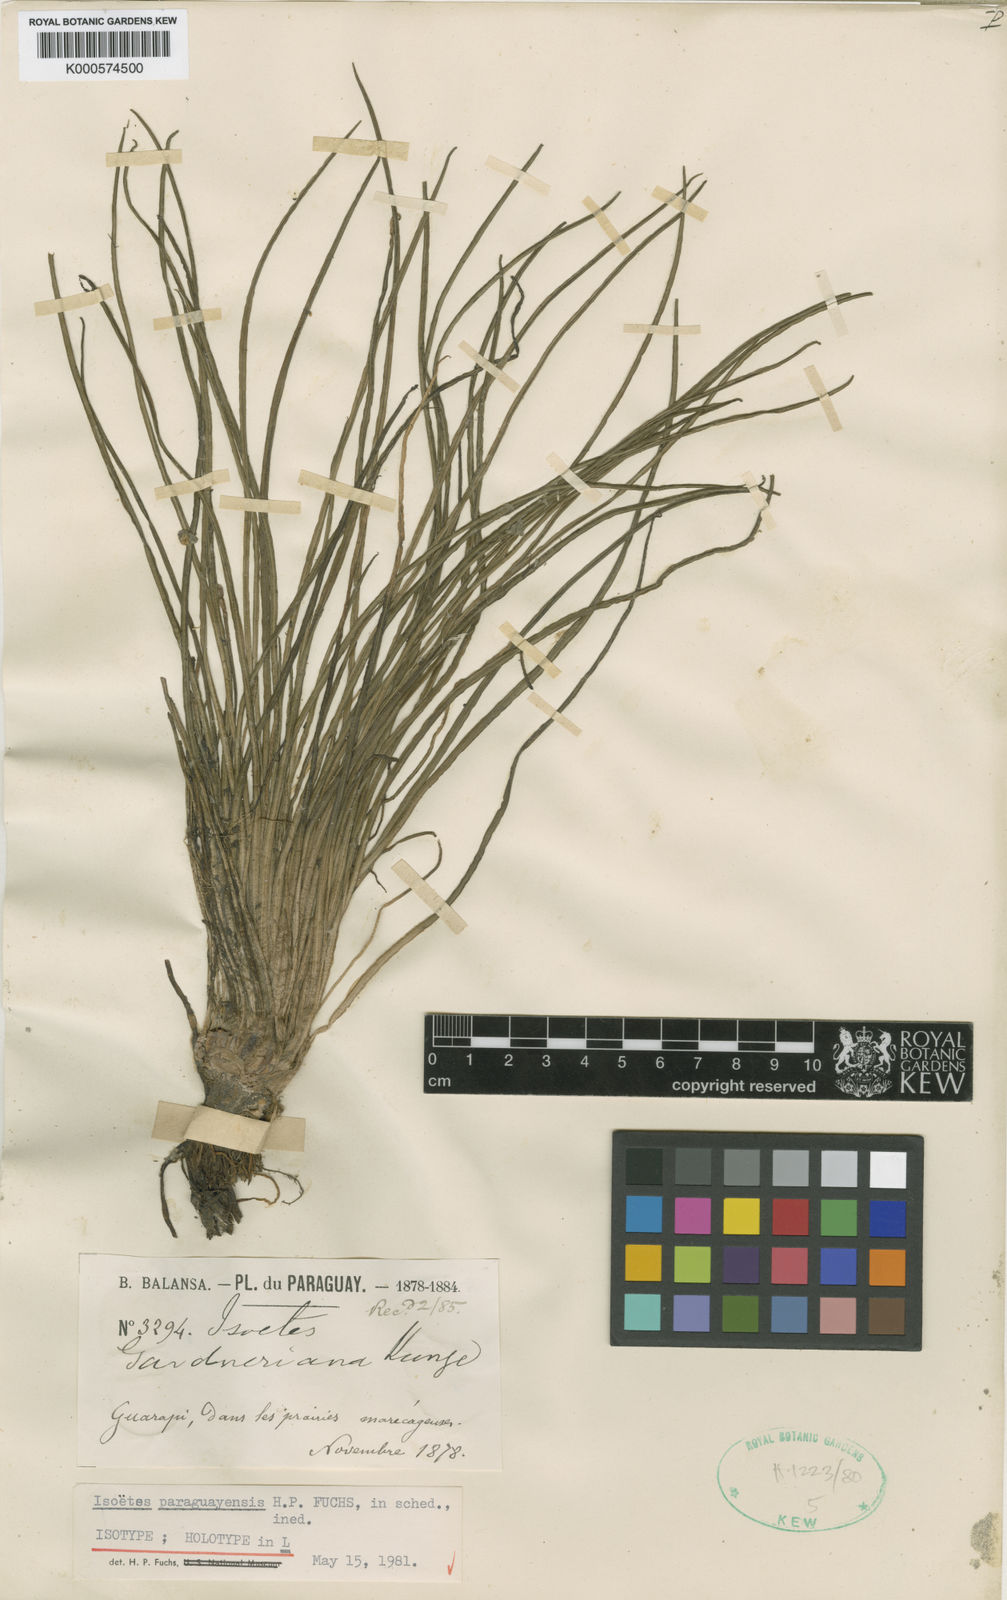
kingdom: Plantae
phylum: Tracheophyta
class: Lycopodiopsida
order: Isoetales
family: Isoetaceae
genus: Isoetes
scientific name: Isoetes gardneriana
